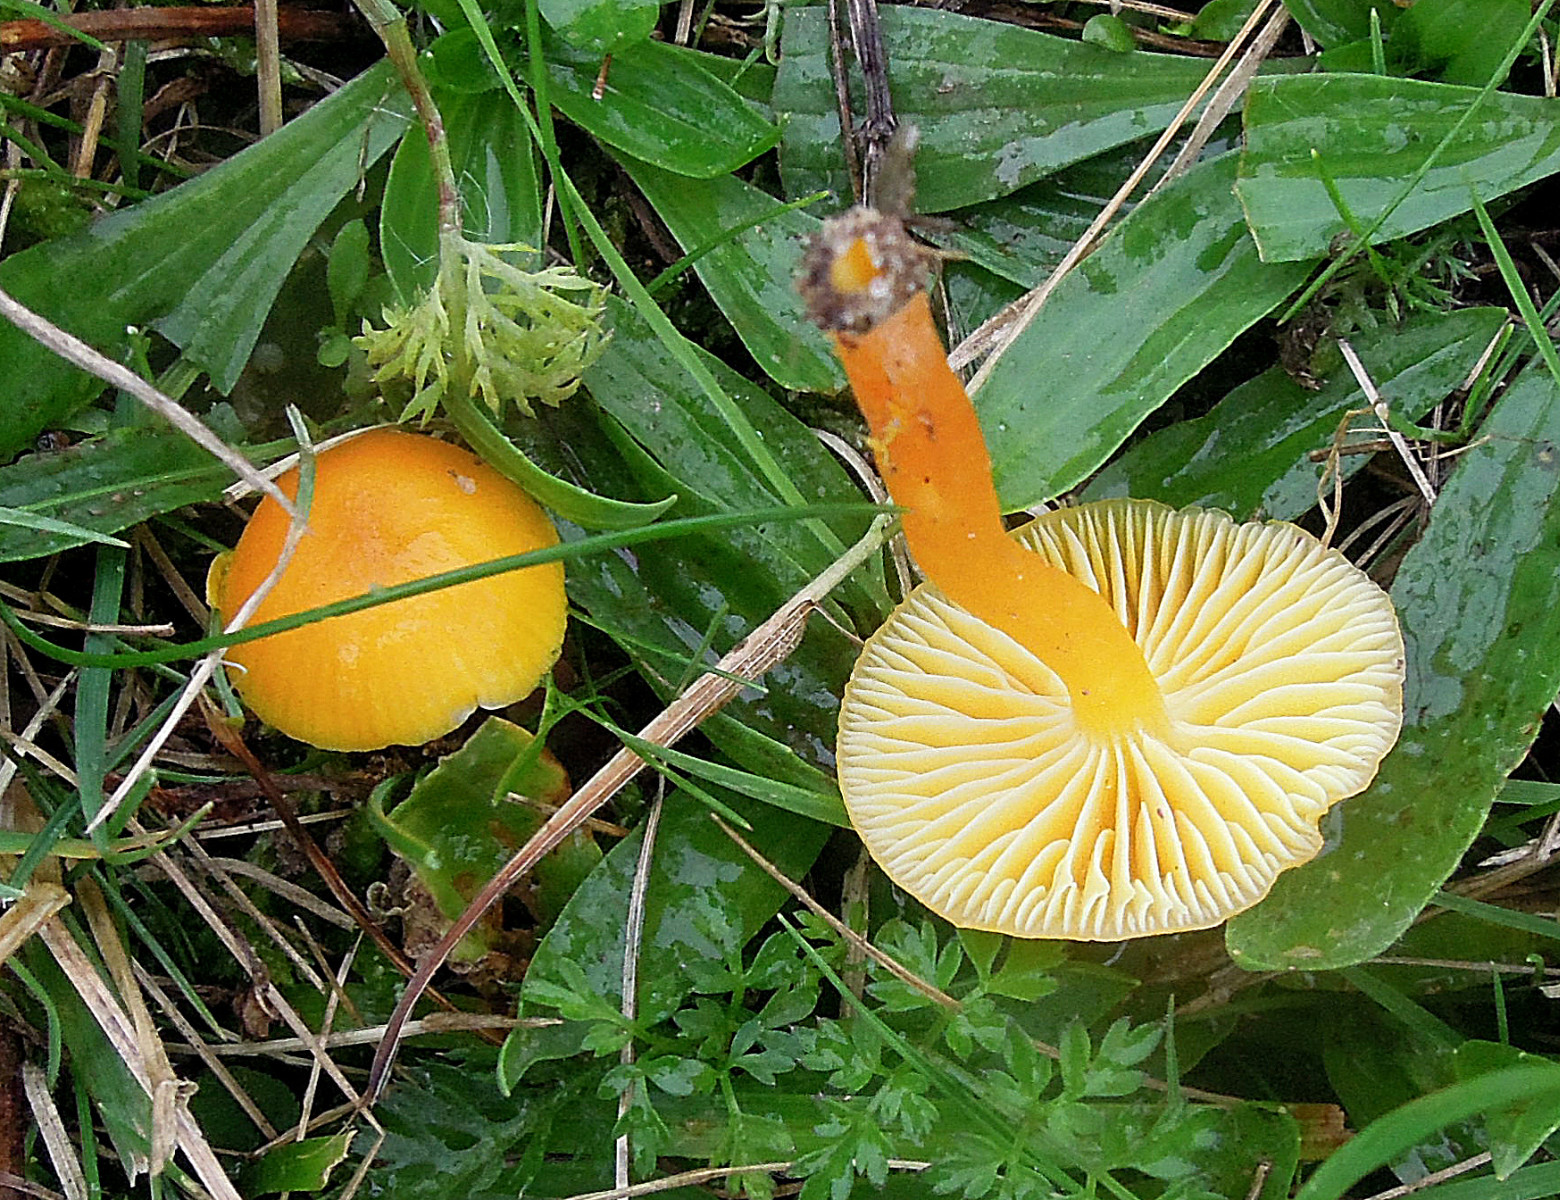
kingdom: Fungi
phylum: Basidiomycota
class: Agaricomycetes
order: Agaricales
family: Hygrophoraceae
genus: Hygrocybe
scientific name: Hygrocybe ceracea
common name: voksgul vokshat
